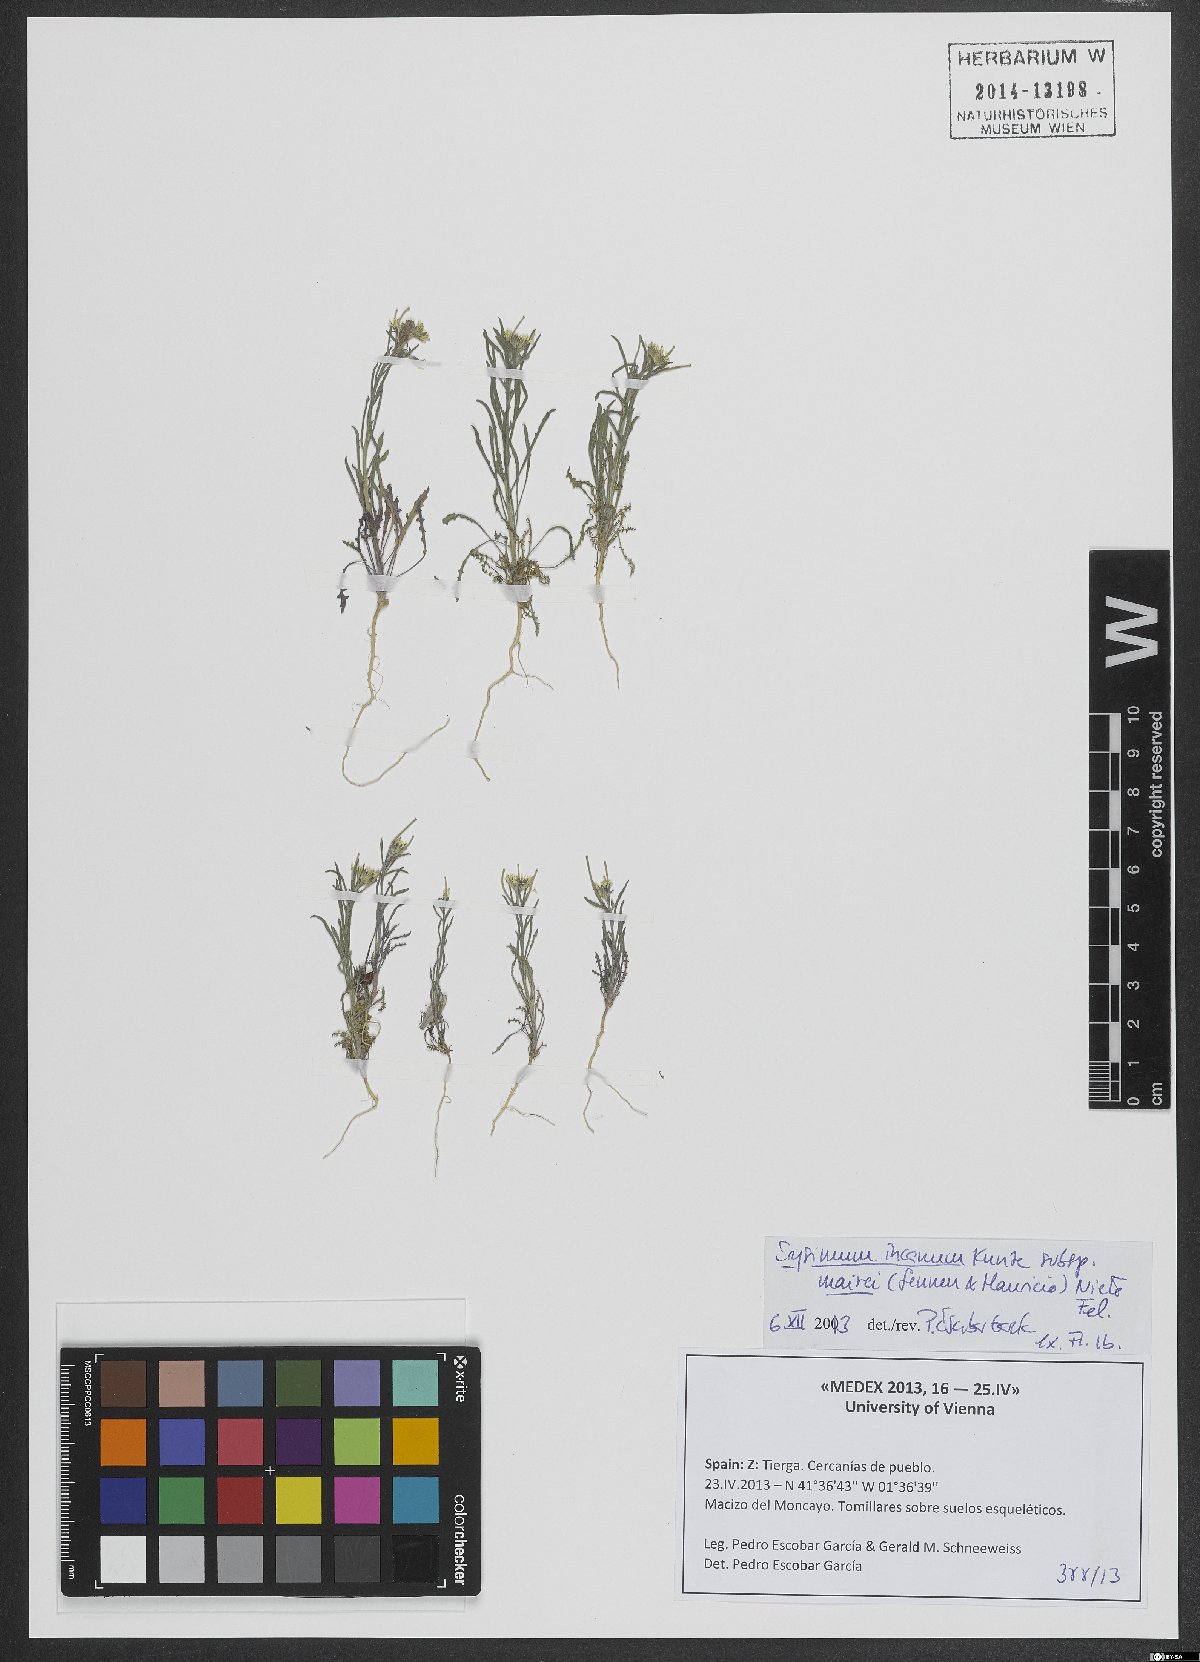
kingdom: Plantae
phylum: Tracheophyta
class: Magnoliopsida
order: Brassicales
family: Brassicaceae
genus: Erysimum
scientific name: Erysimum incanum
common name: Hoary treacle mustard
